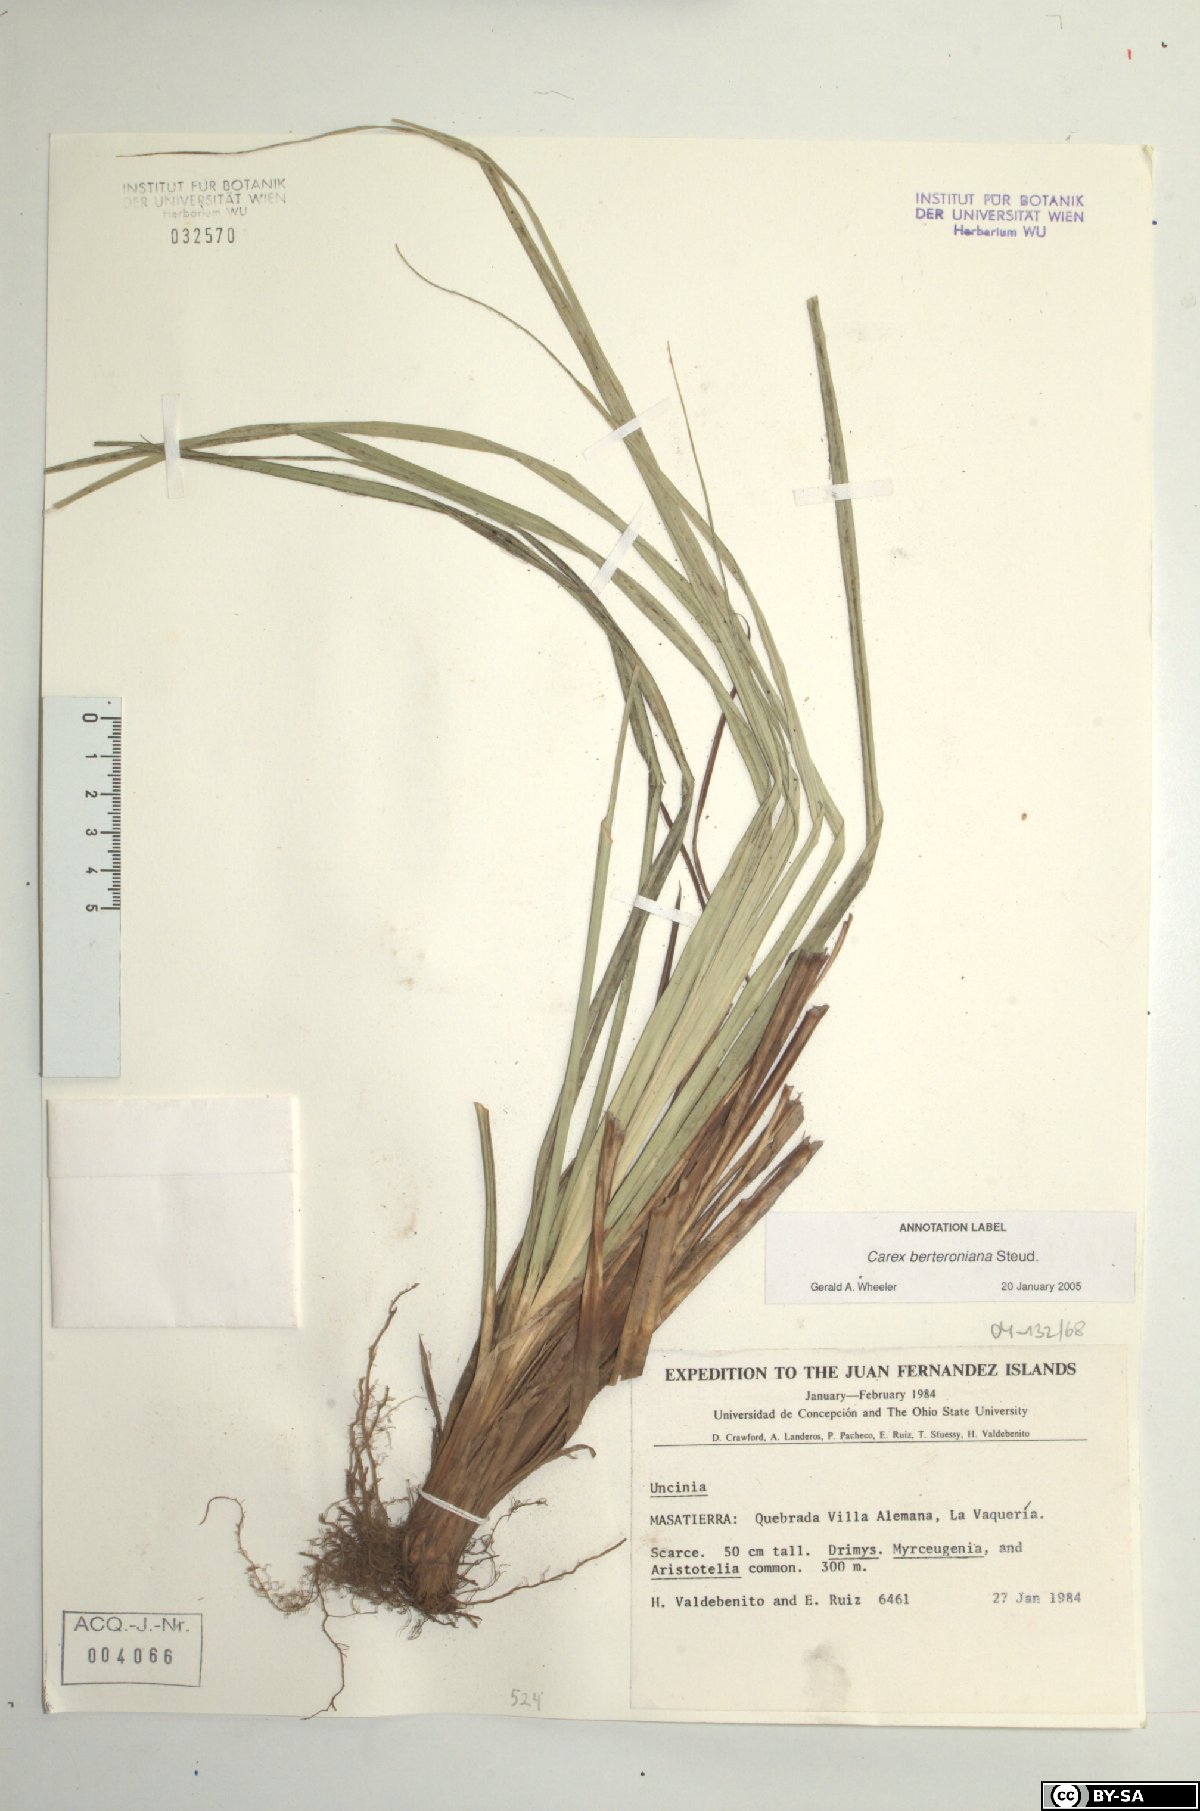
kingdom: Plantae
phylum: Tracheophyta
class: Liliopsida
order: Poales
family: Cyperaceae
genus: Carex
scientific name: Carex berteroniana
